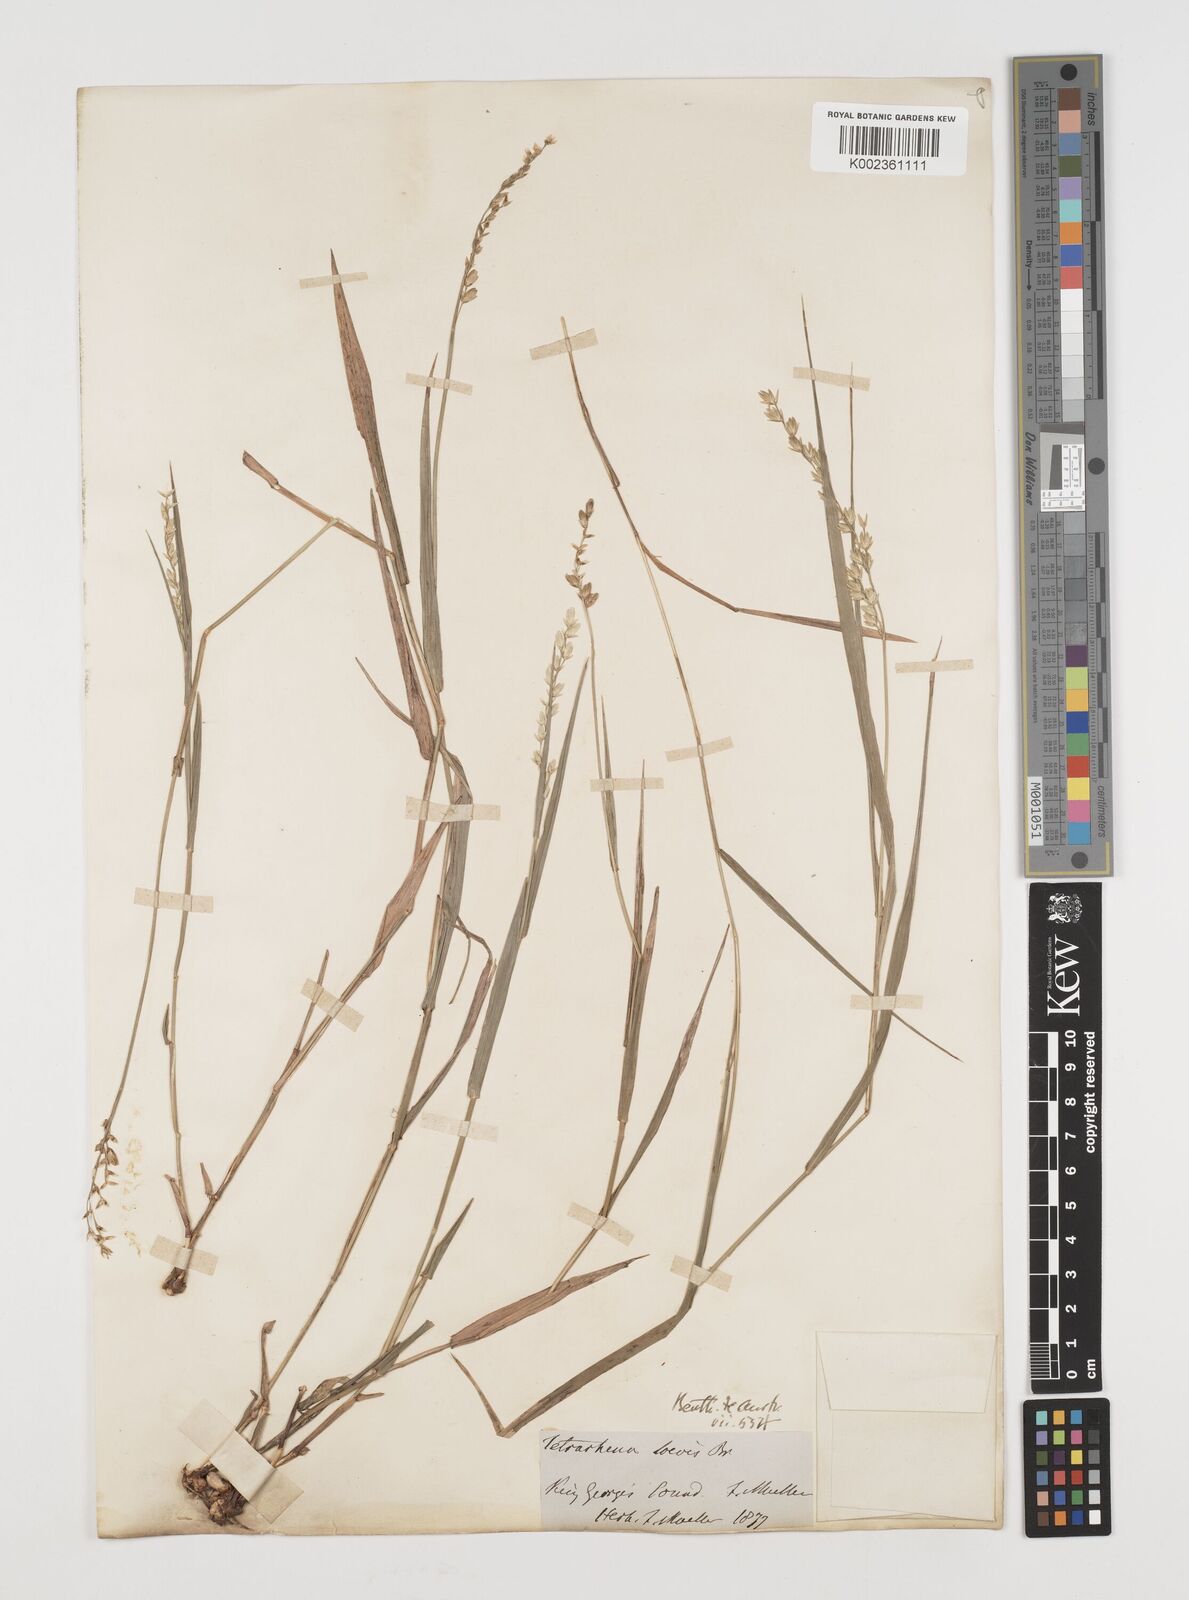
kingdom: Plantae
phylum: Tracheophyta
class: Liliopsida
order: Poales
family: Poaceae
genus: Tetrarrhena
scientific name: Tetrarrhena laevis
